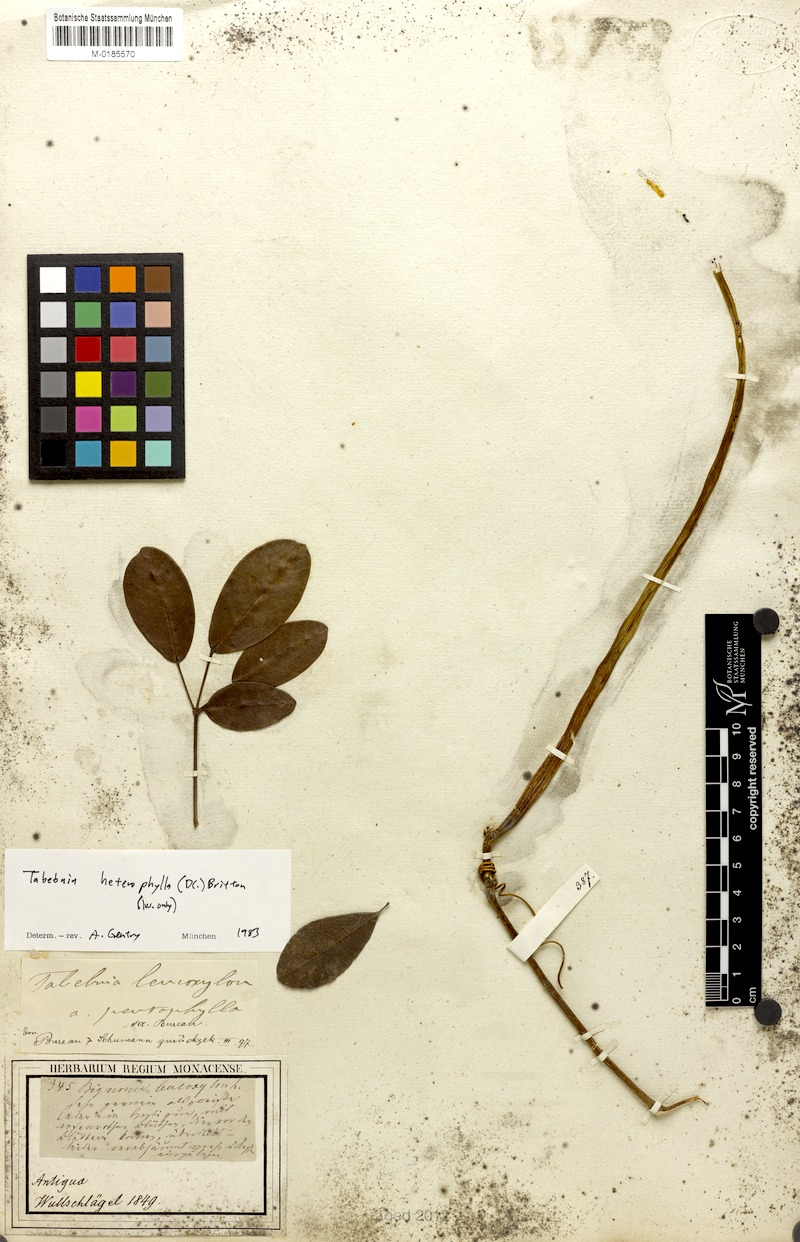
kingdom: Plantae
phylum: Tracheophyta
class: Magnoliopsida
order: Lamiales
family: Bignoniaceae
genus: Tabebuia
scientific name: Tabebuia heterophylla
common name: White cedar
